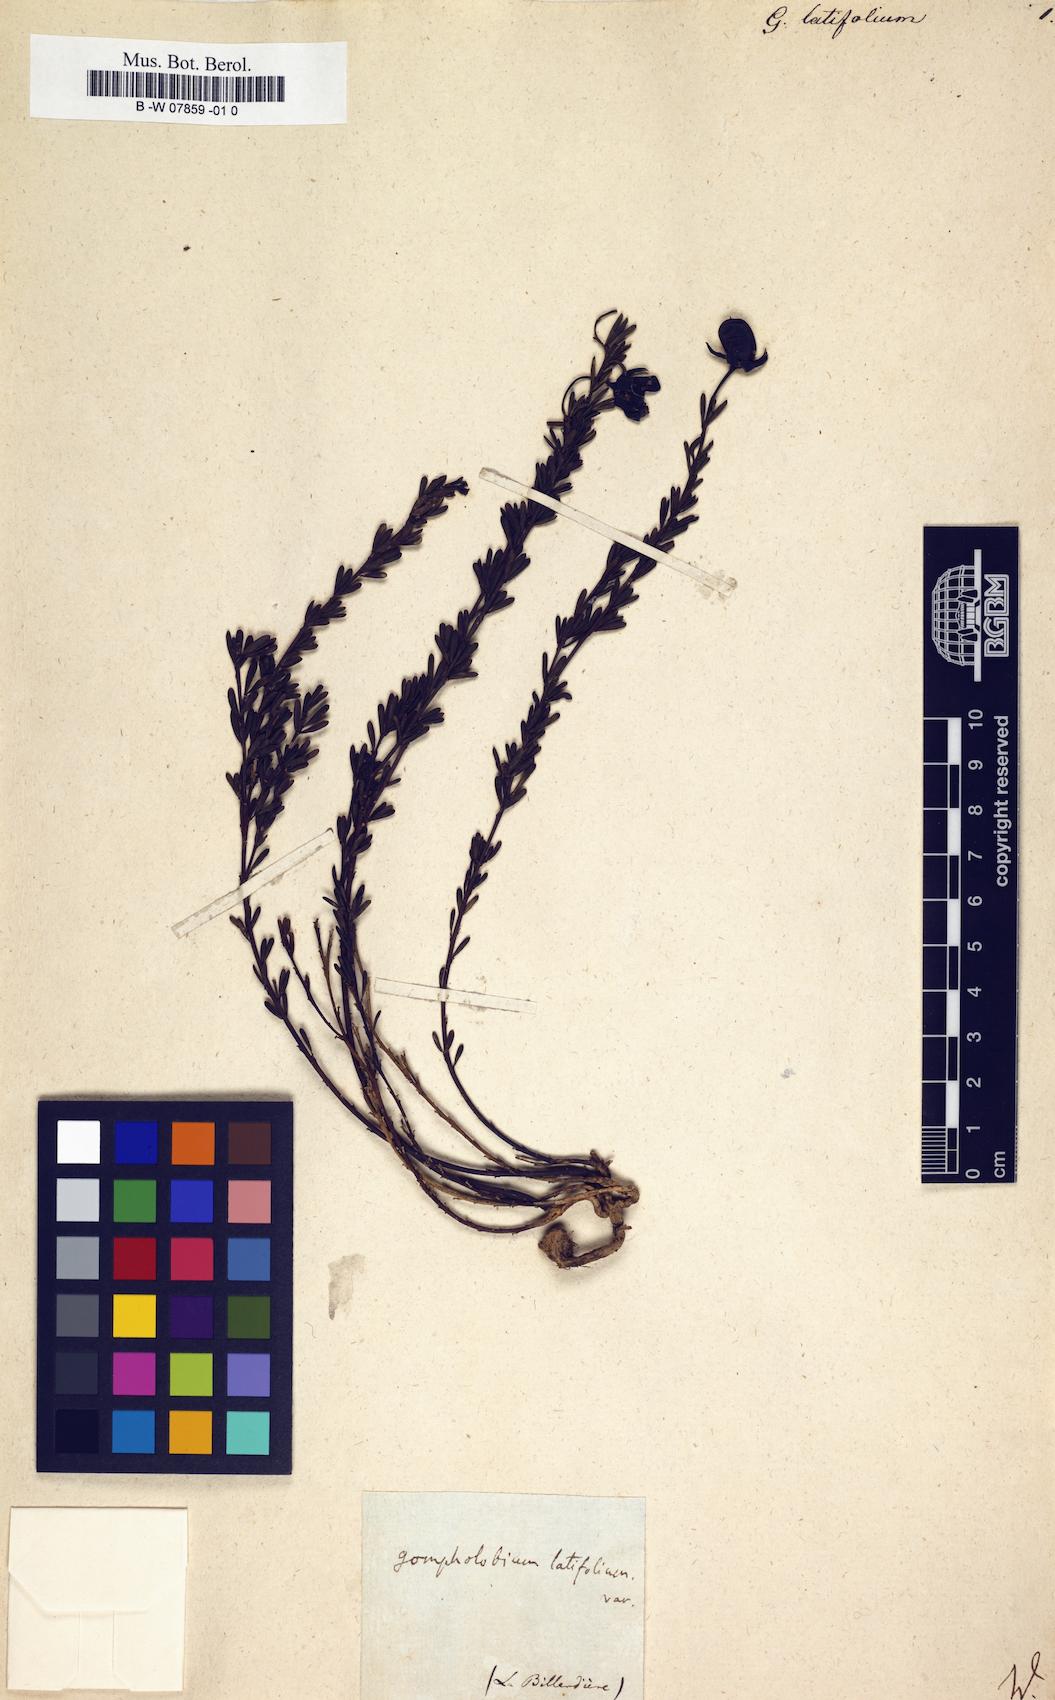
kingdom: Plantae
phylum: Tracheophyta
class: Magnoliopsida
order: Fabales
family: Fabaceae
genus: Gompholobium
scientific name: Gompholobium latifolium
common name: Broadleaf wedge-pea
